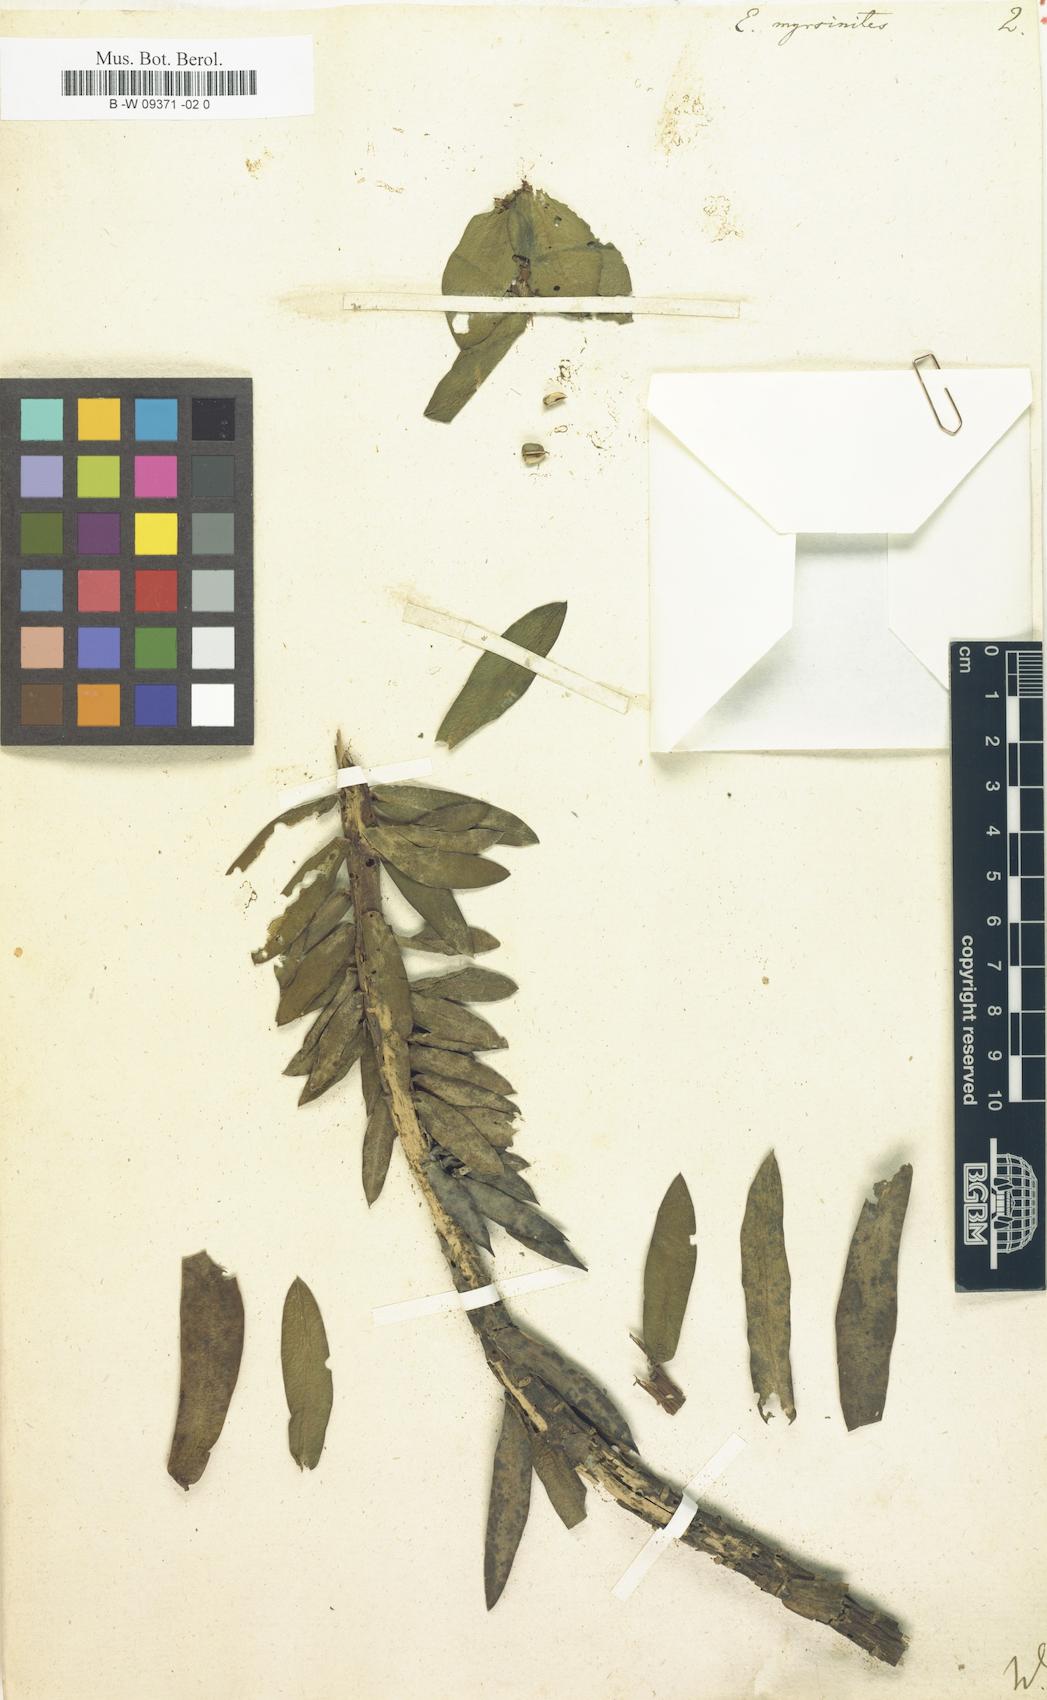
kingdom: Plantae
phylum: Tracheophyta
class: Magnoliopsida
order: Malpighiales
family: Euphorbiaceae
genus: Euphorbia
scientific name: Euphorbia myrsinites
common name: Myrtle spurge
